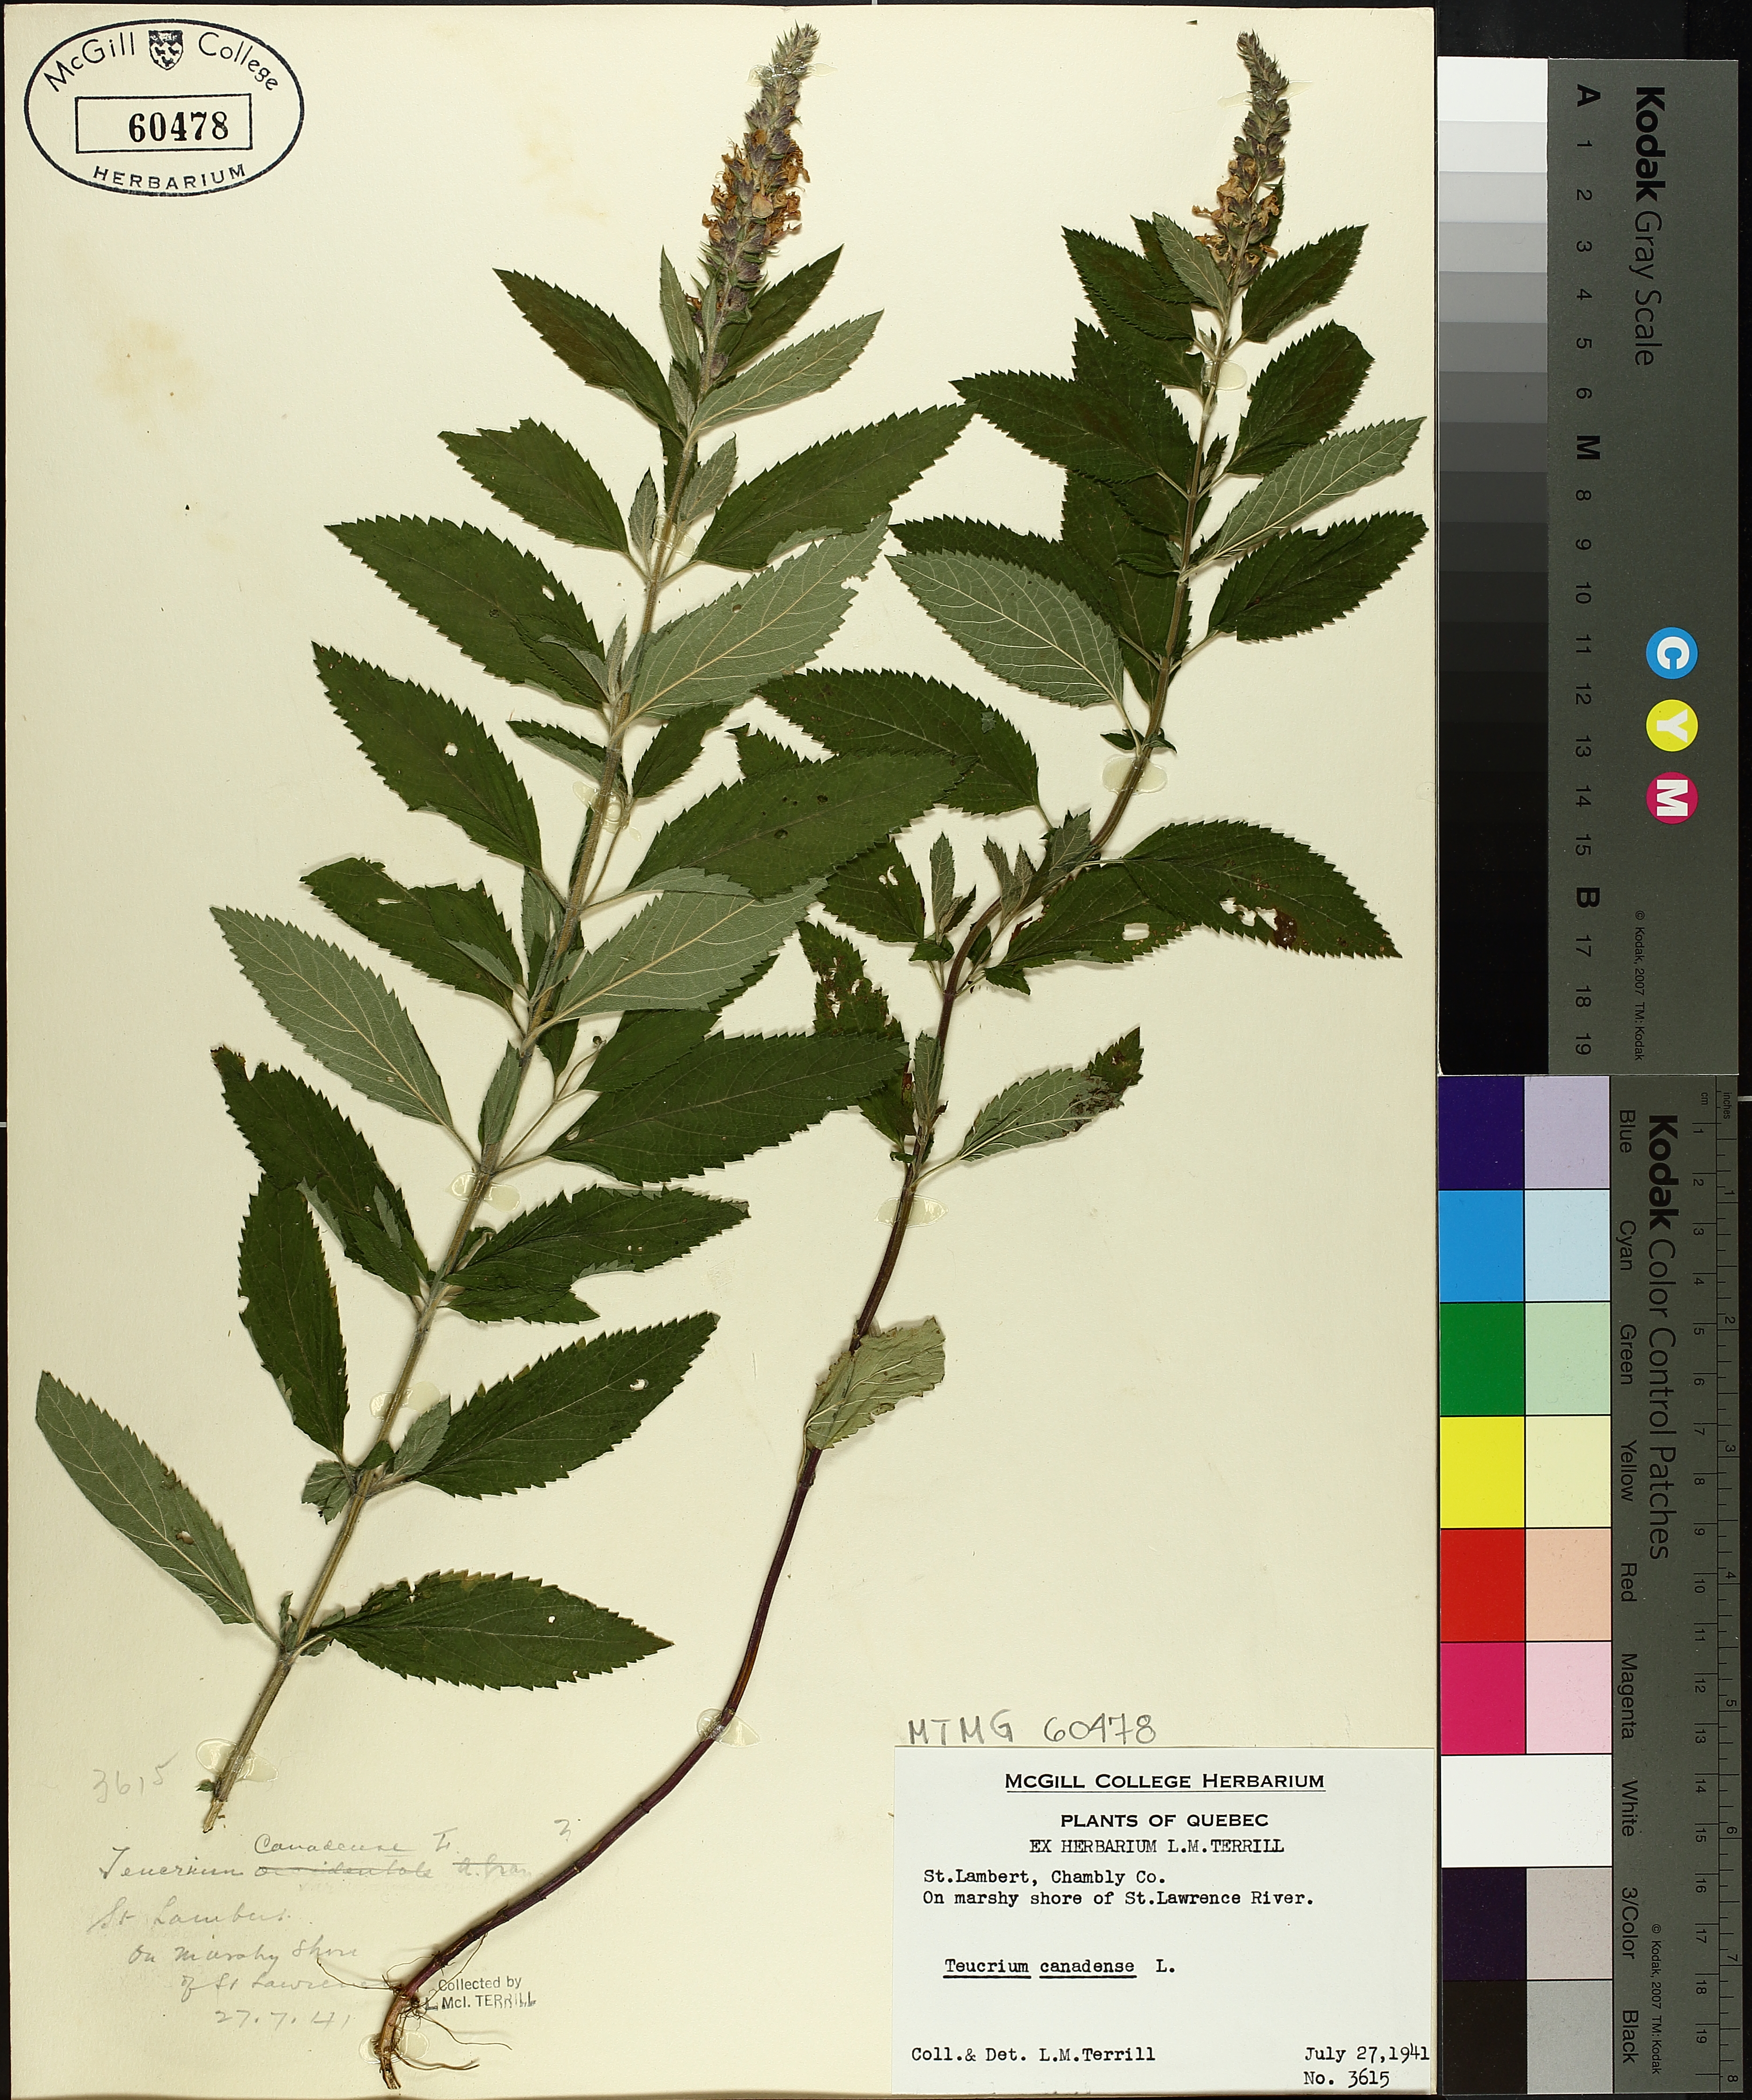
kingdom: Plantae
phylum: Tracheophyta
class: Magnoliopsida
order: Lamiales
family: Lamiaceae
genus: Teucrium
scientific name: Teucrium canadense
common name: American germander
